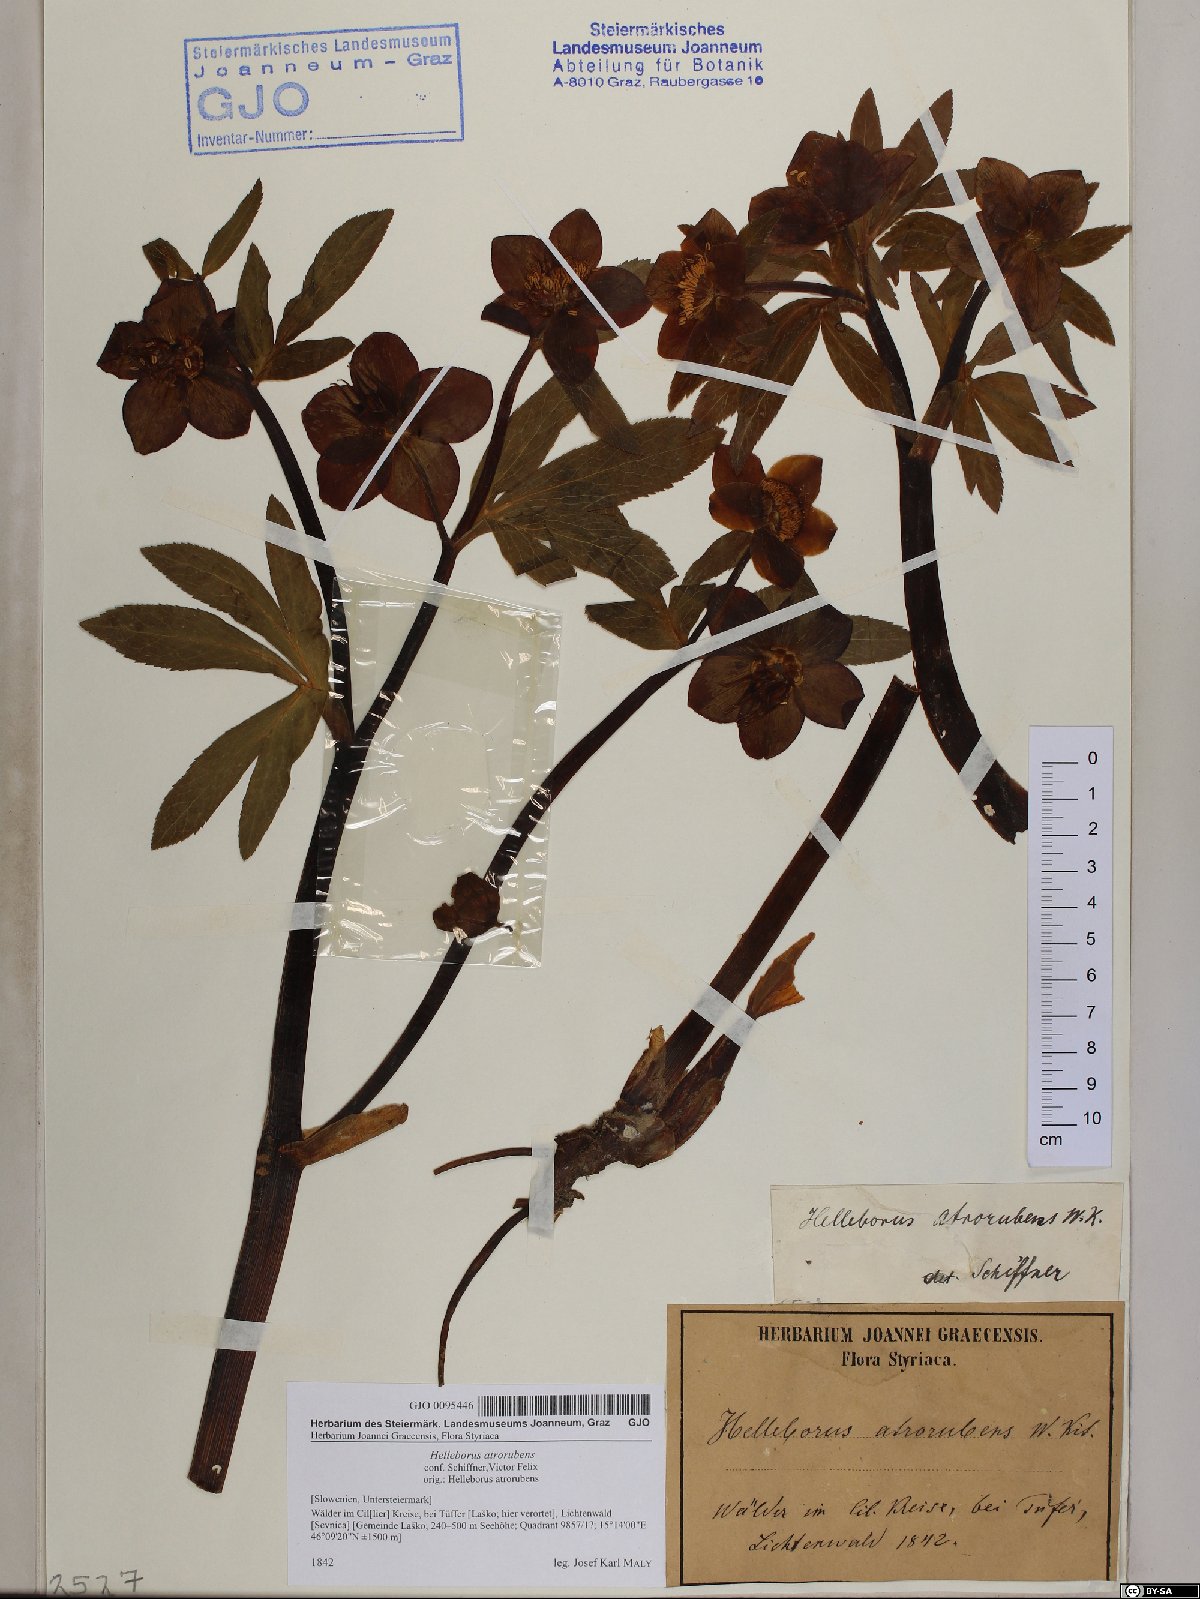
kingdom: Plantae
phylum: Tracheophyta
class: Magnoliopsida
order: Ranunculales
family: Ranunculaceae
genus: Helleborus
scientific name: Helleborus dumetorum
